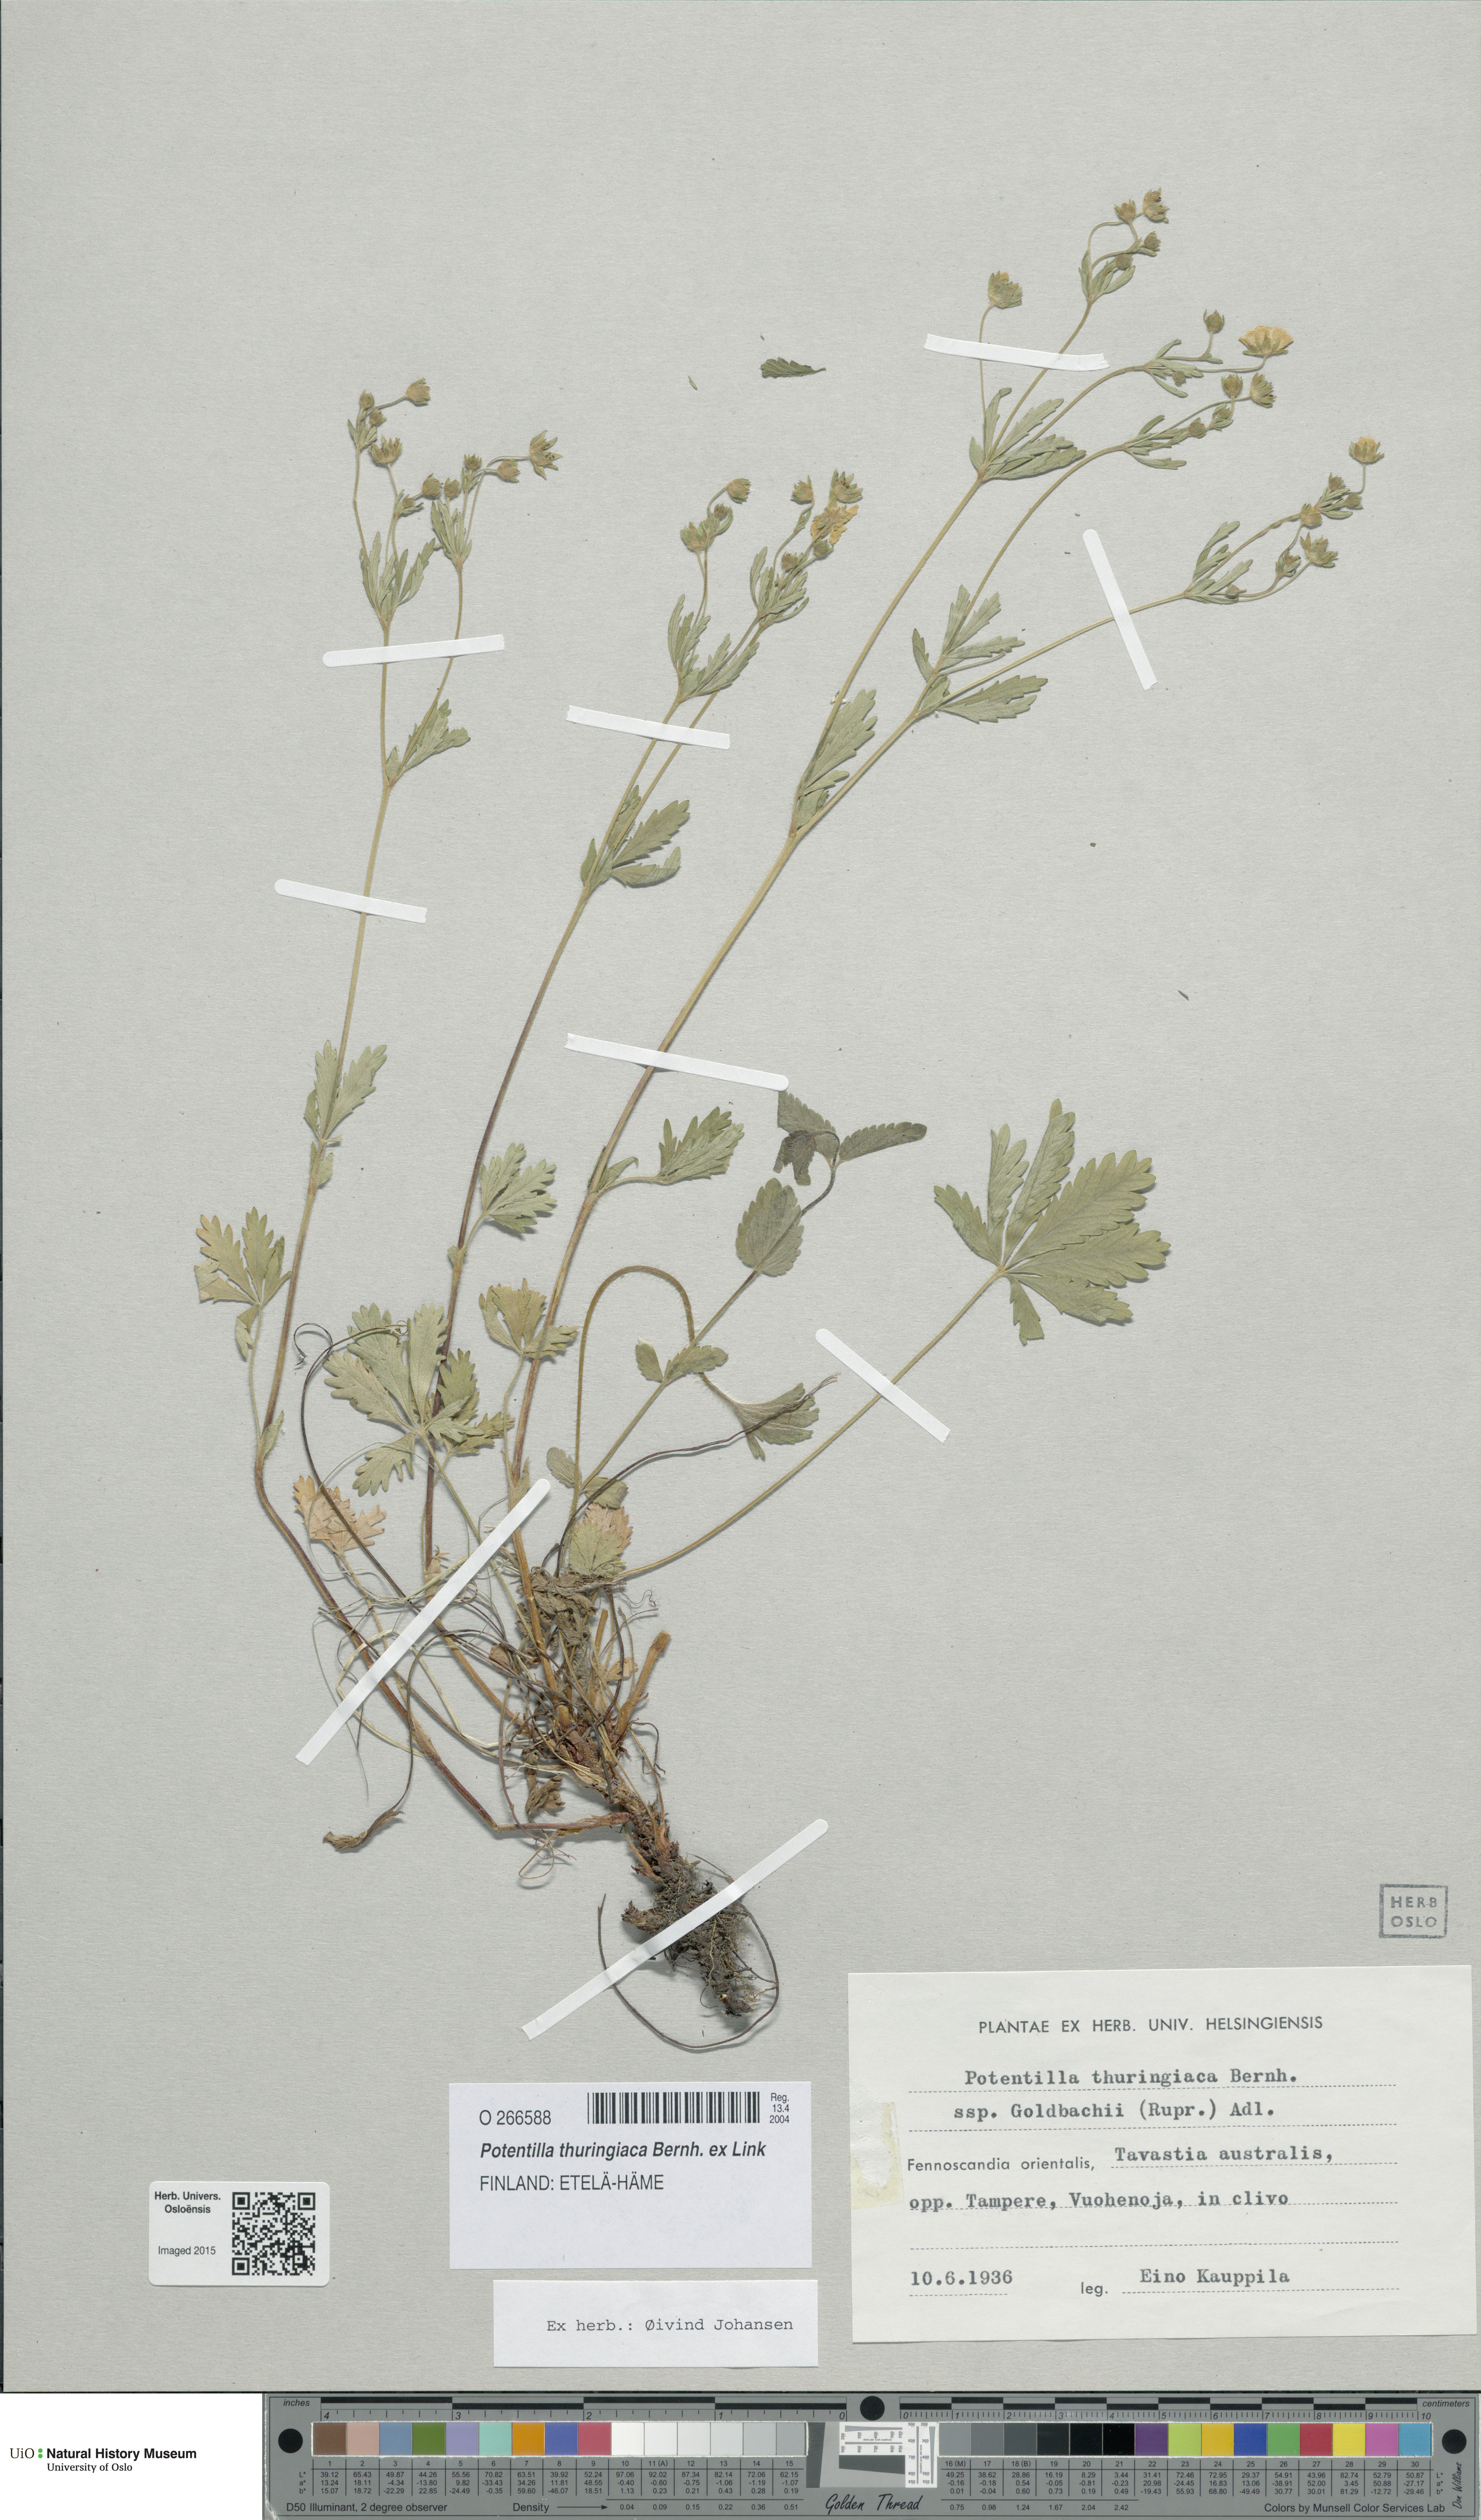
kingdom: Plantae
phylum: Tracheophyta
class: Magnoliopsida
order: Rosales
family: Rosaceae
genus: Potentilla
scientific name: Potentilla thuringiaca
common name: European cinquefoil
